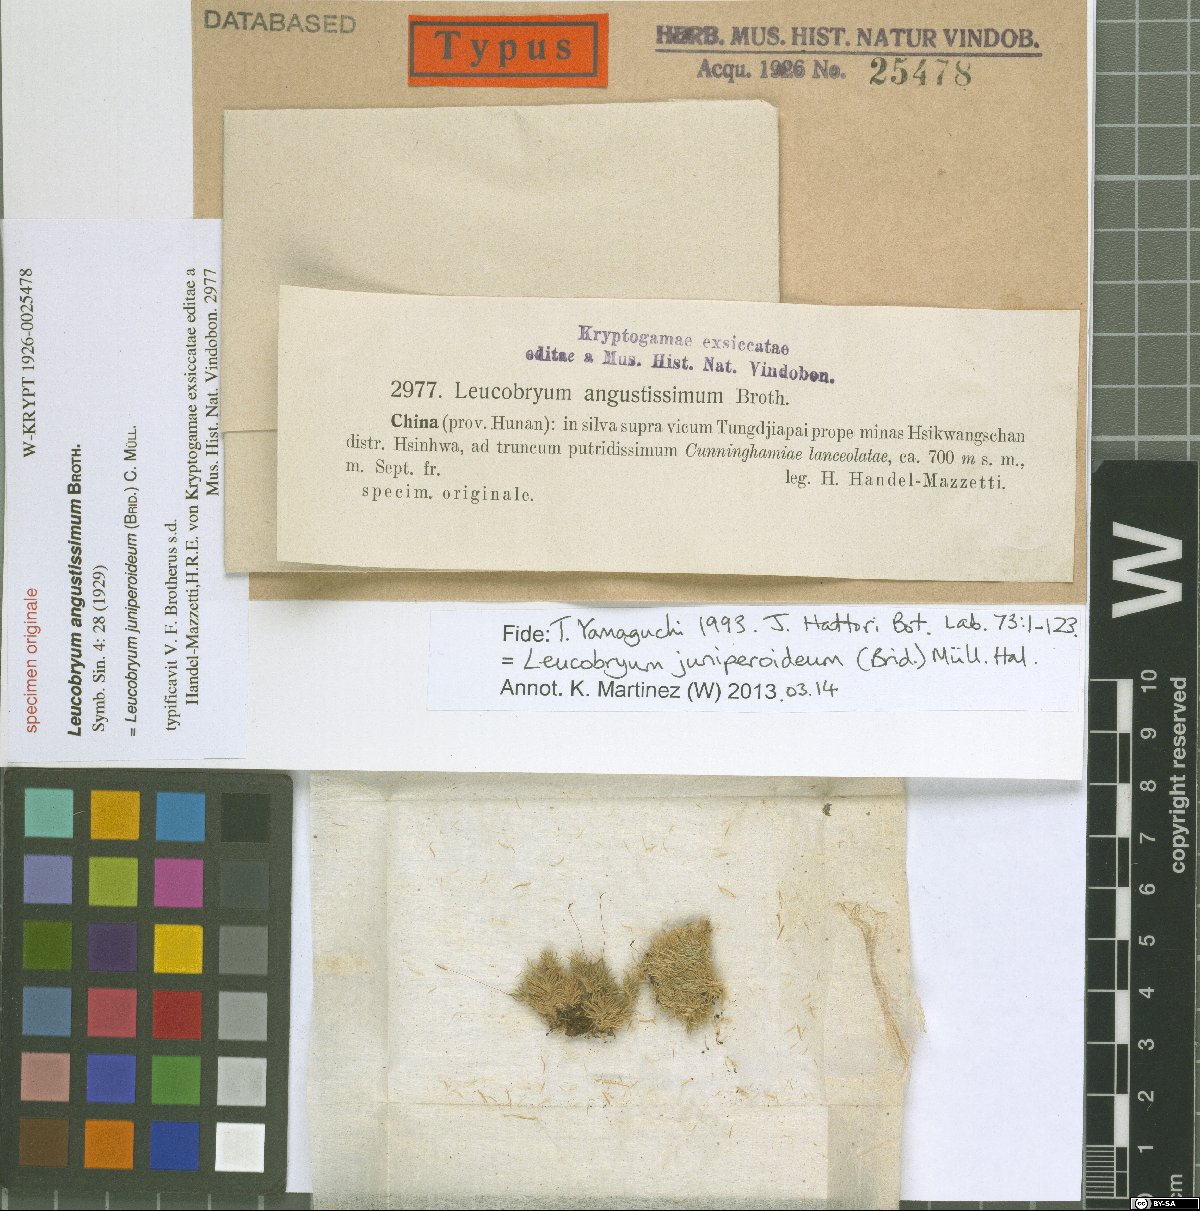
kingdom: Plantae
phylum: Bryophyta
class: Bryopsida
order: Dicranales
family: Leucobryaceae
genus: Leucobryum
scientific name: Leucobryum juniperoideum
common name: Smaller white-moss
